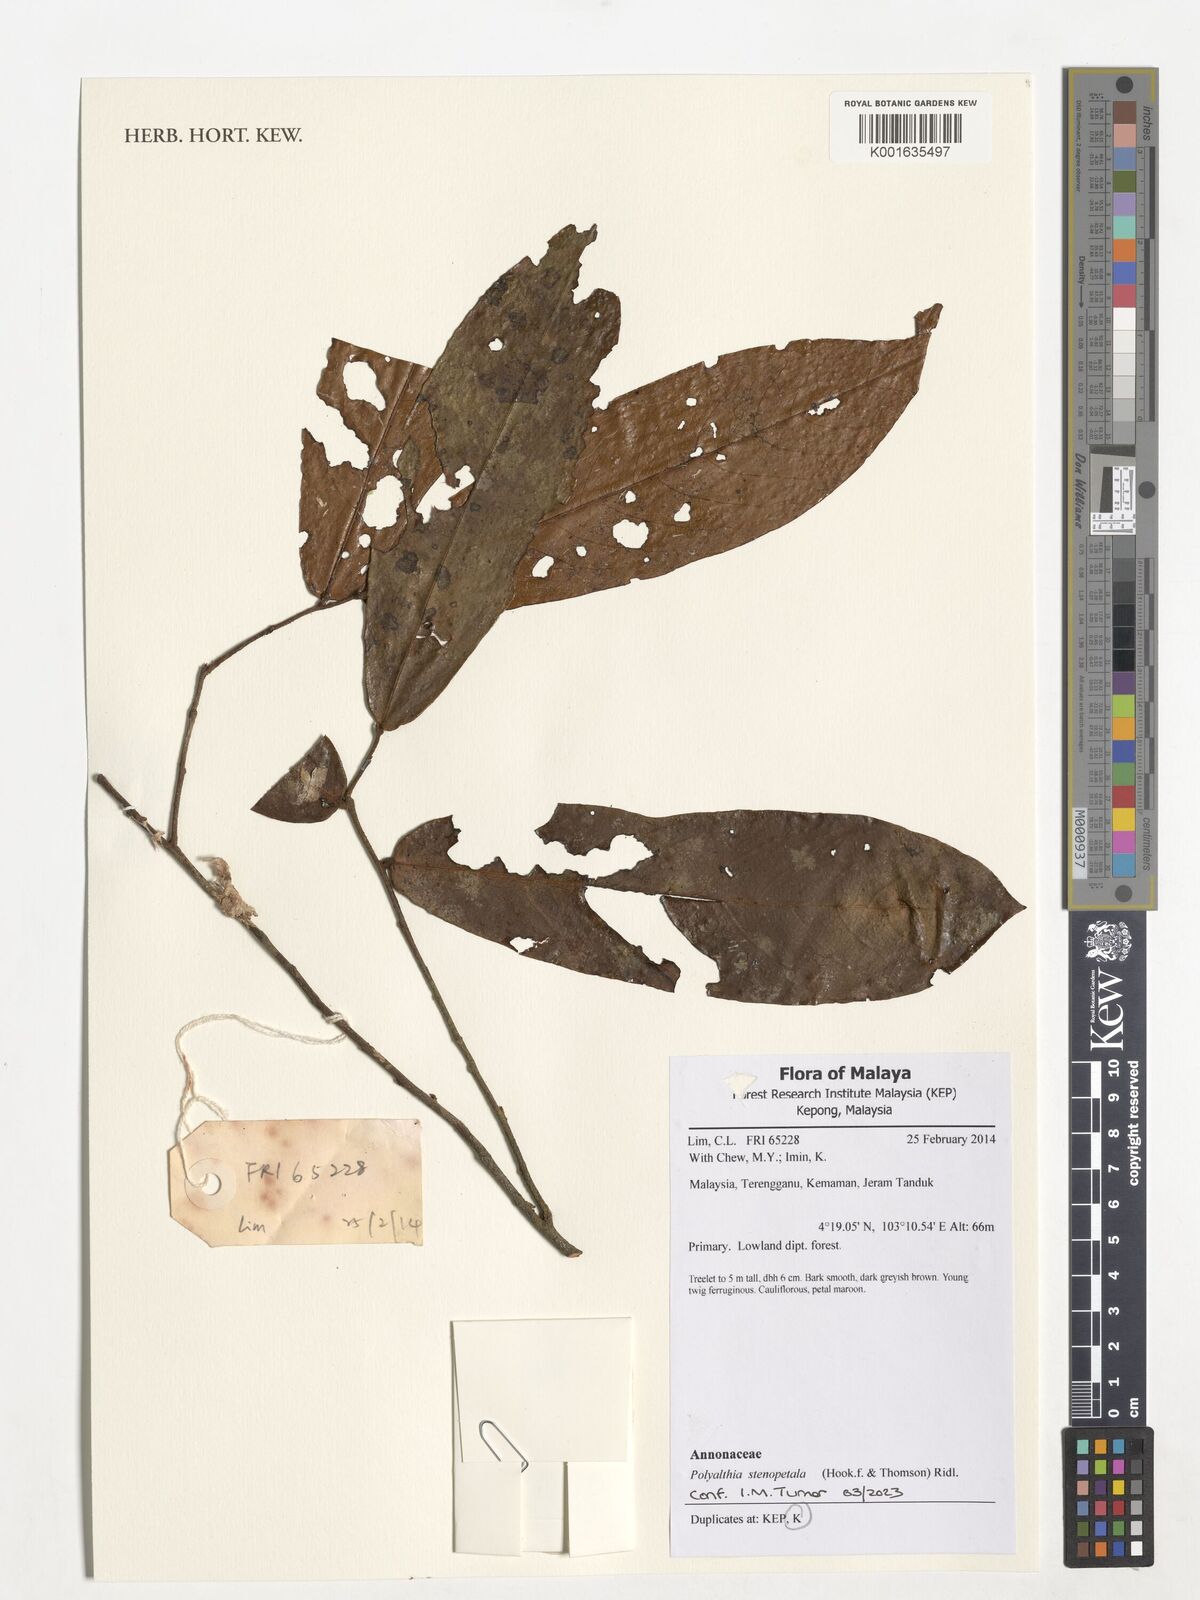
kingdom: Plantae
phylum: Tracheophyta
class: Magnoliopsida
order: Magnoliales
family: Annonaceae
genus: Polyalthia
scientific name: Polyalthia stenopetala
